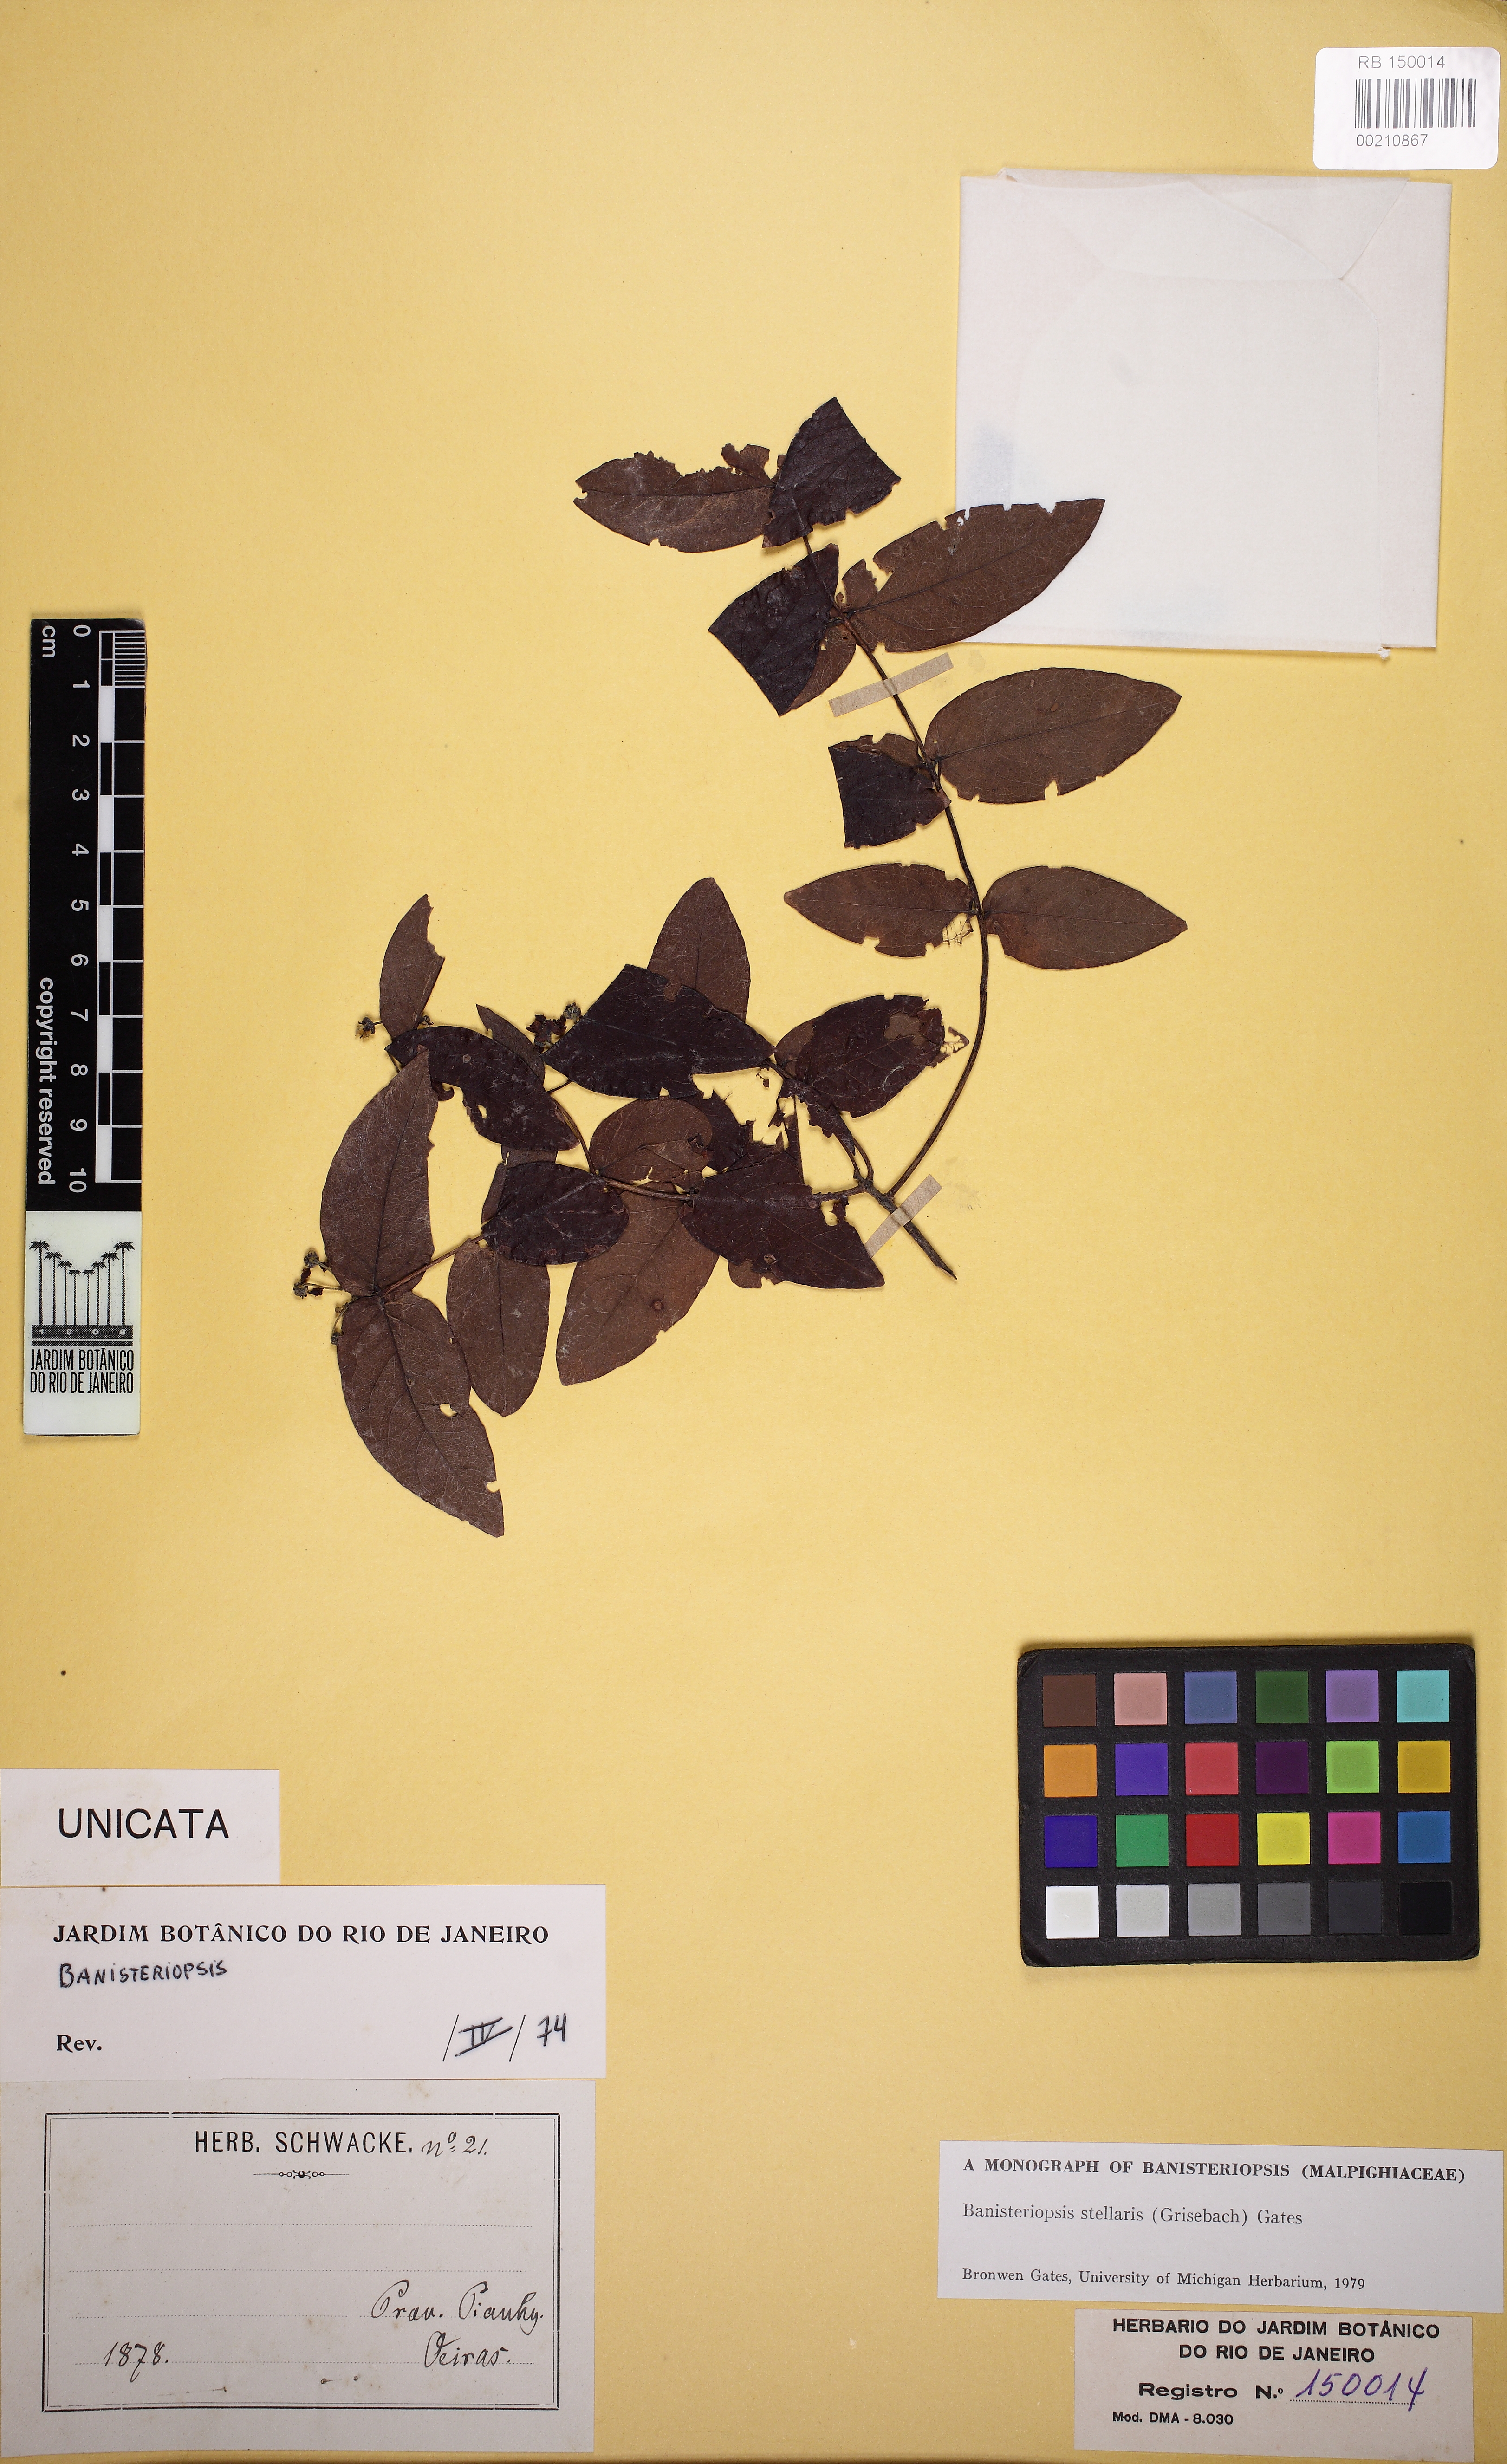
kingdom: Plantae
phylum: Tracheophyta
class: Magnoliopsida
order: Malpighiales
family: Malpighiaceae
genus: Banisteriopsis
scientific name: Banisteriopsis stellaris
